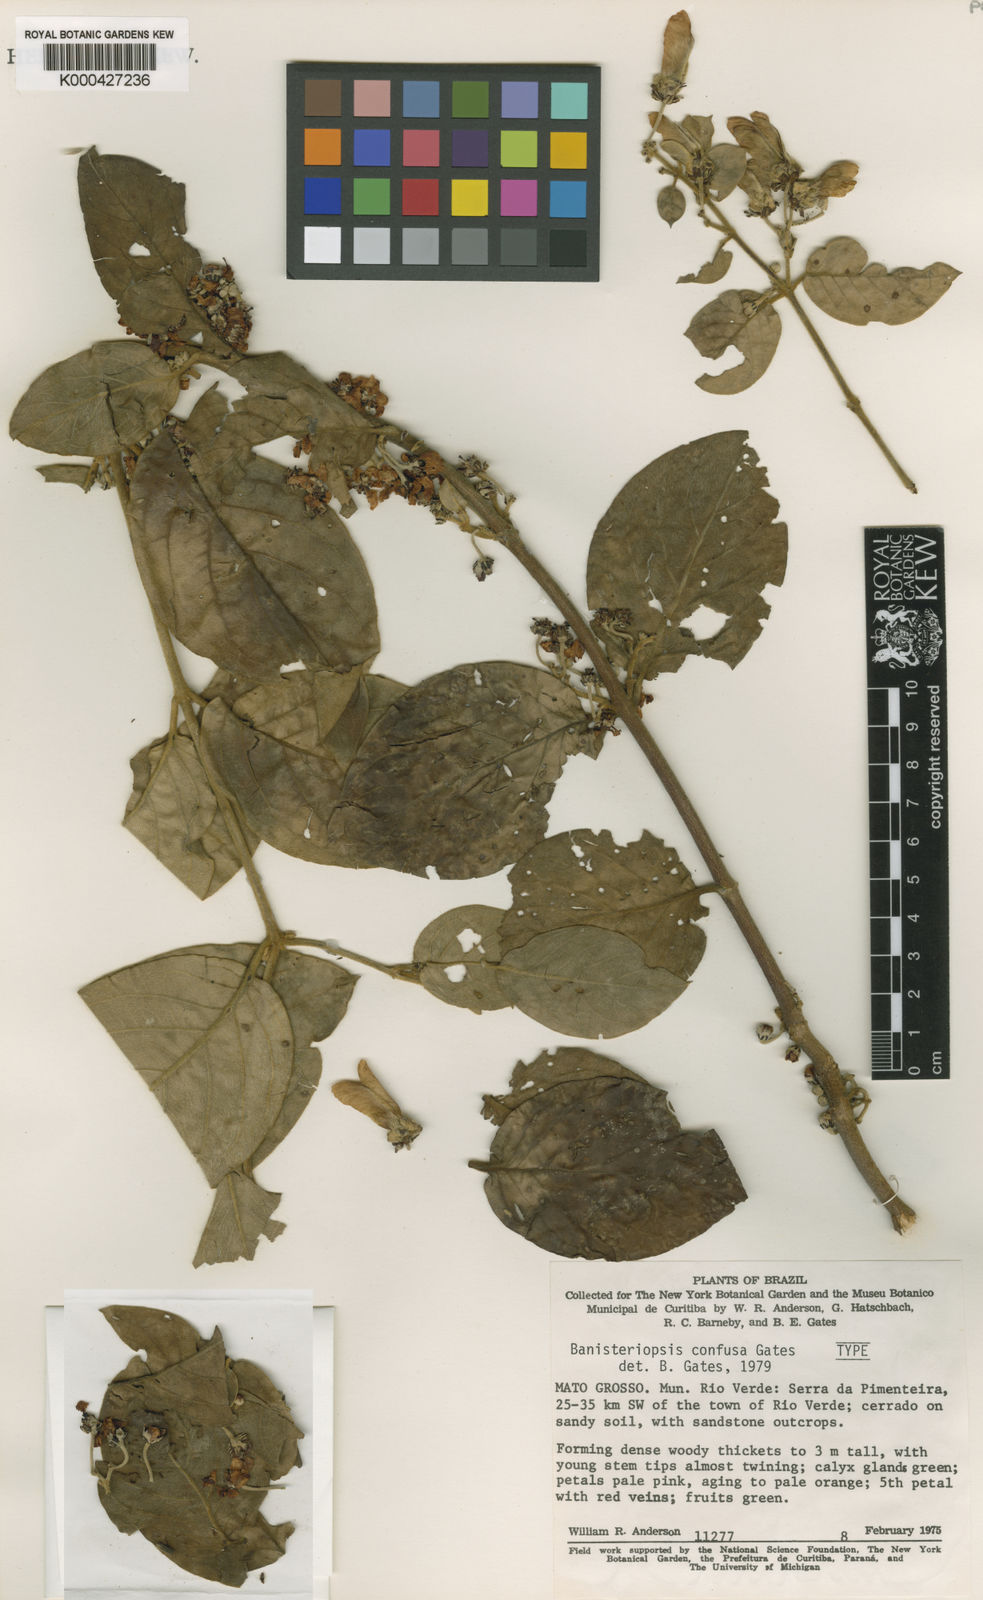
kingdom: Plantae
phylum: Tracheophyta
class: Magnoliopsida
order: Malpighiales
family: Malpighiaceae
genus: Banisteriopsis
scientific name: Banisteriopsis confusa
